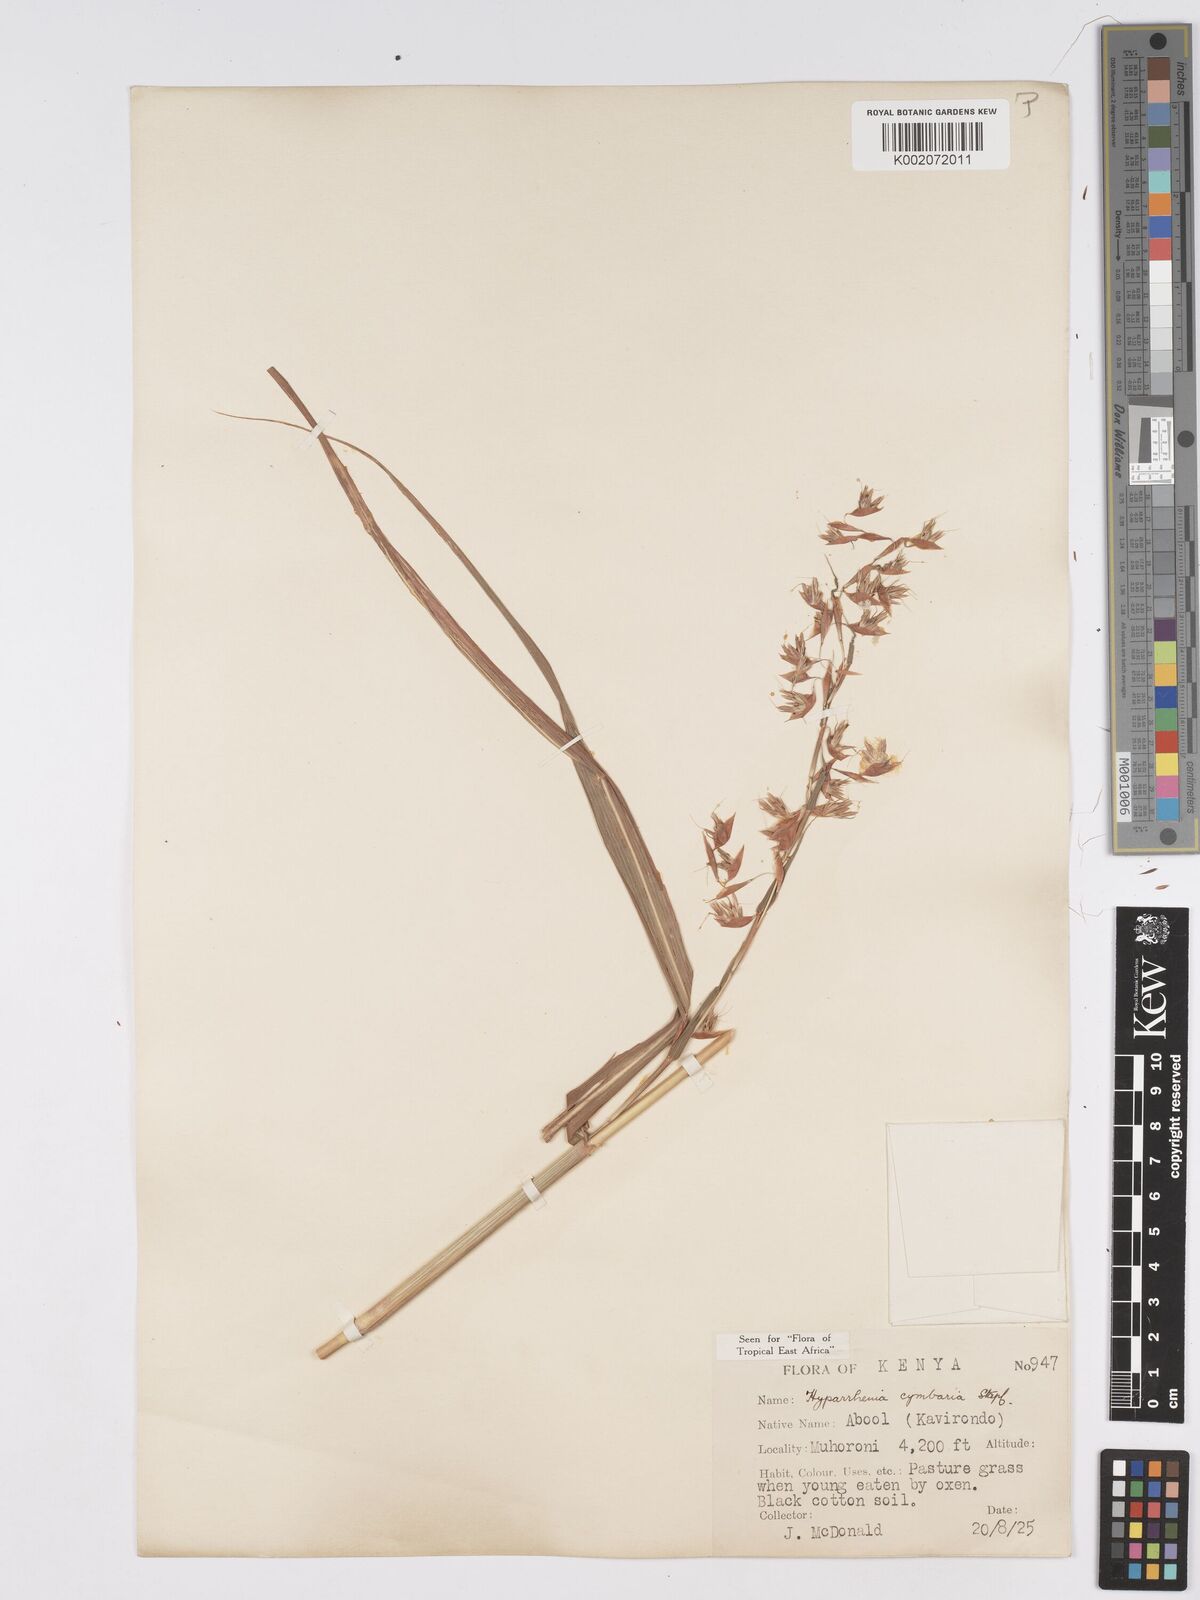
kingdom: Plantae
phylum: Tracheophyta
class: Liliopsida
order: Poales
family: Poaceae
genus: Hyparrhenia
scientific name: Hyparrhenia cymbaria
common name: Boat thatching grass
